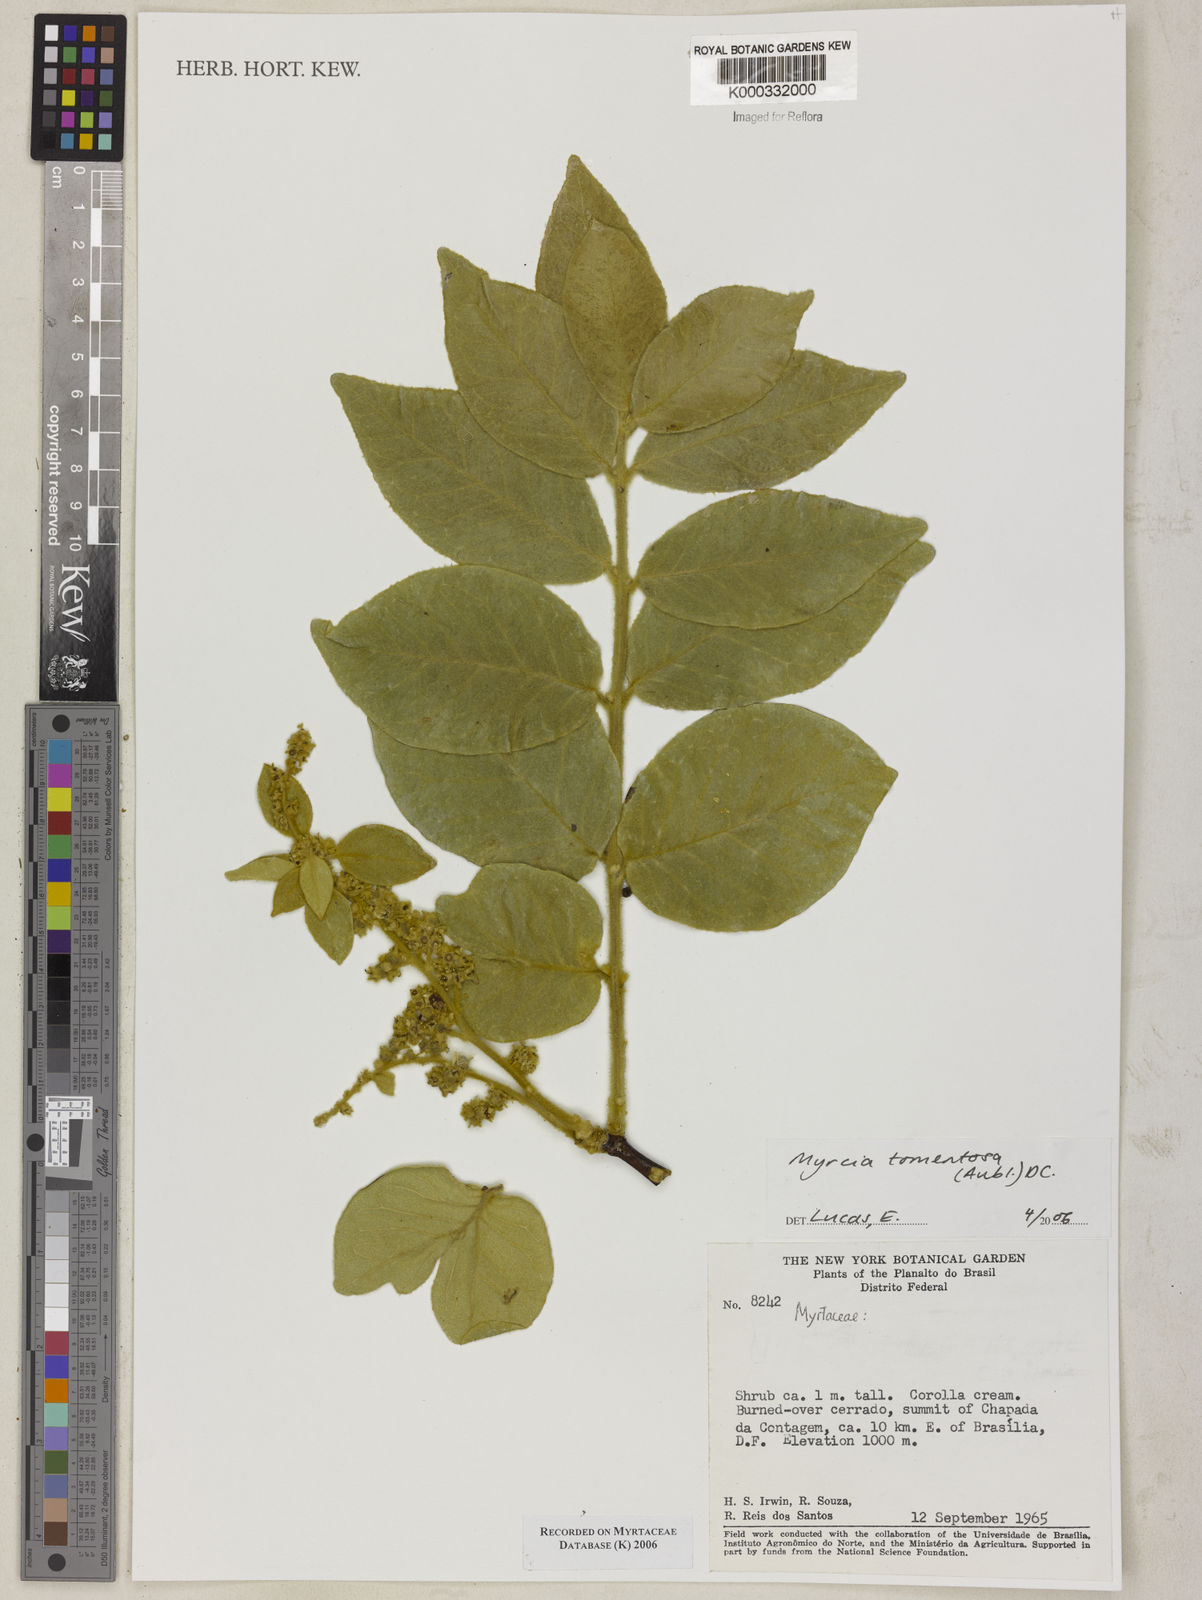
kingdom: Plantae
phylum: Tracheophyta
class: Magnoliopsida
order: Myrtales
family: Myrtaceae
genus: Myrcia
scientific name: Myrcia tomentosa
